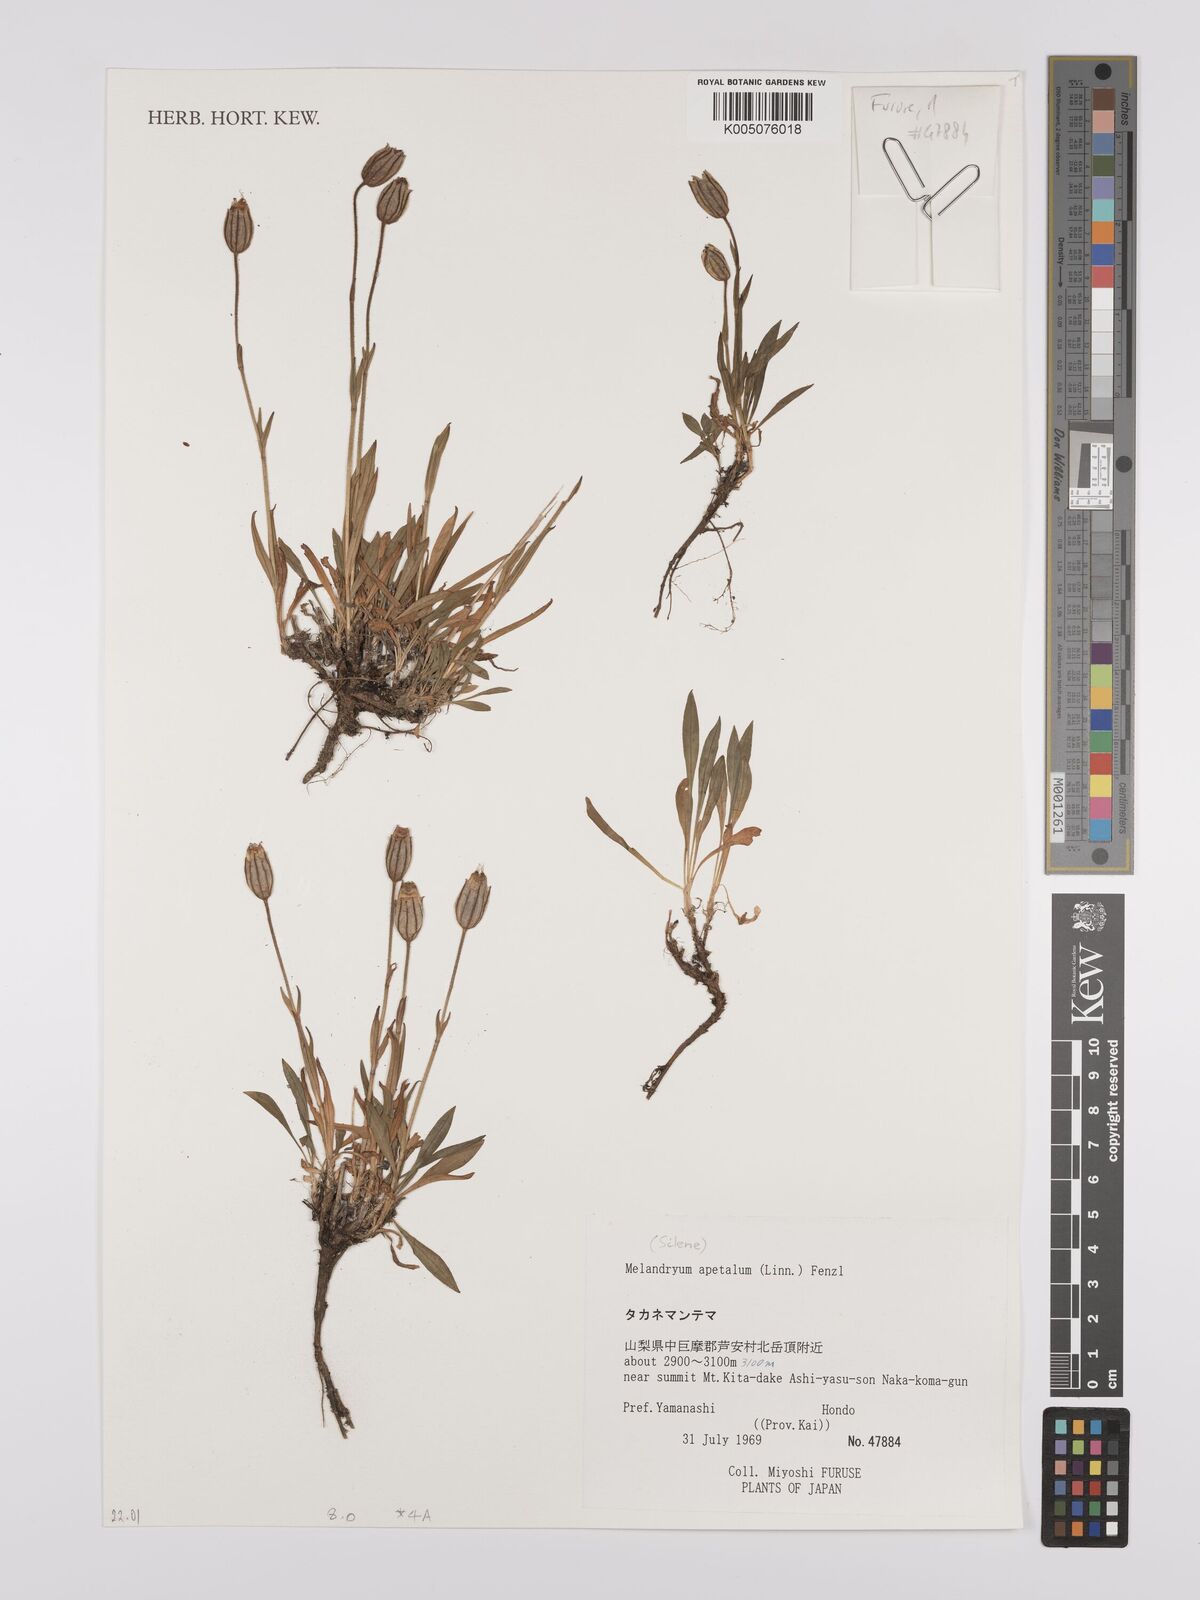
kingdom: Plantae
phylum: Tracheophyta
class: Magnoliopsida
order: Caryophyllales
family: Caryophyllaceae
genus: Silene
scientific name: Silene
